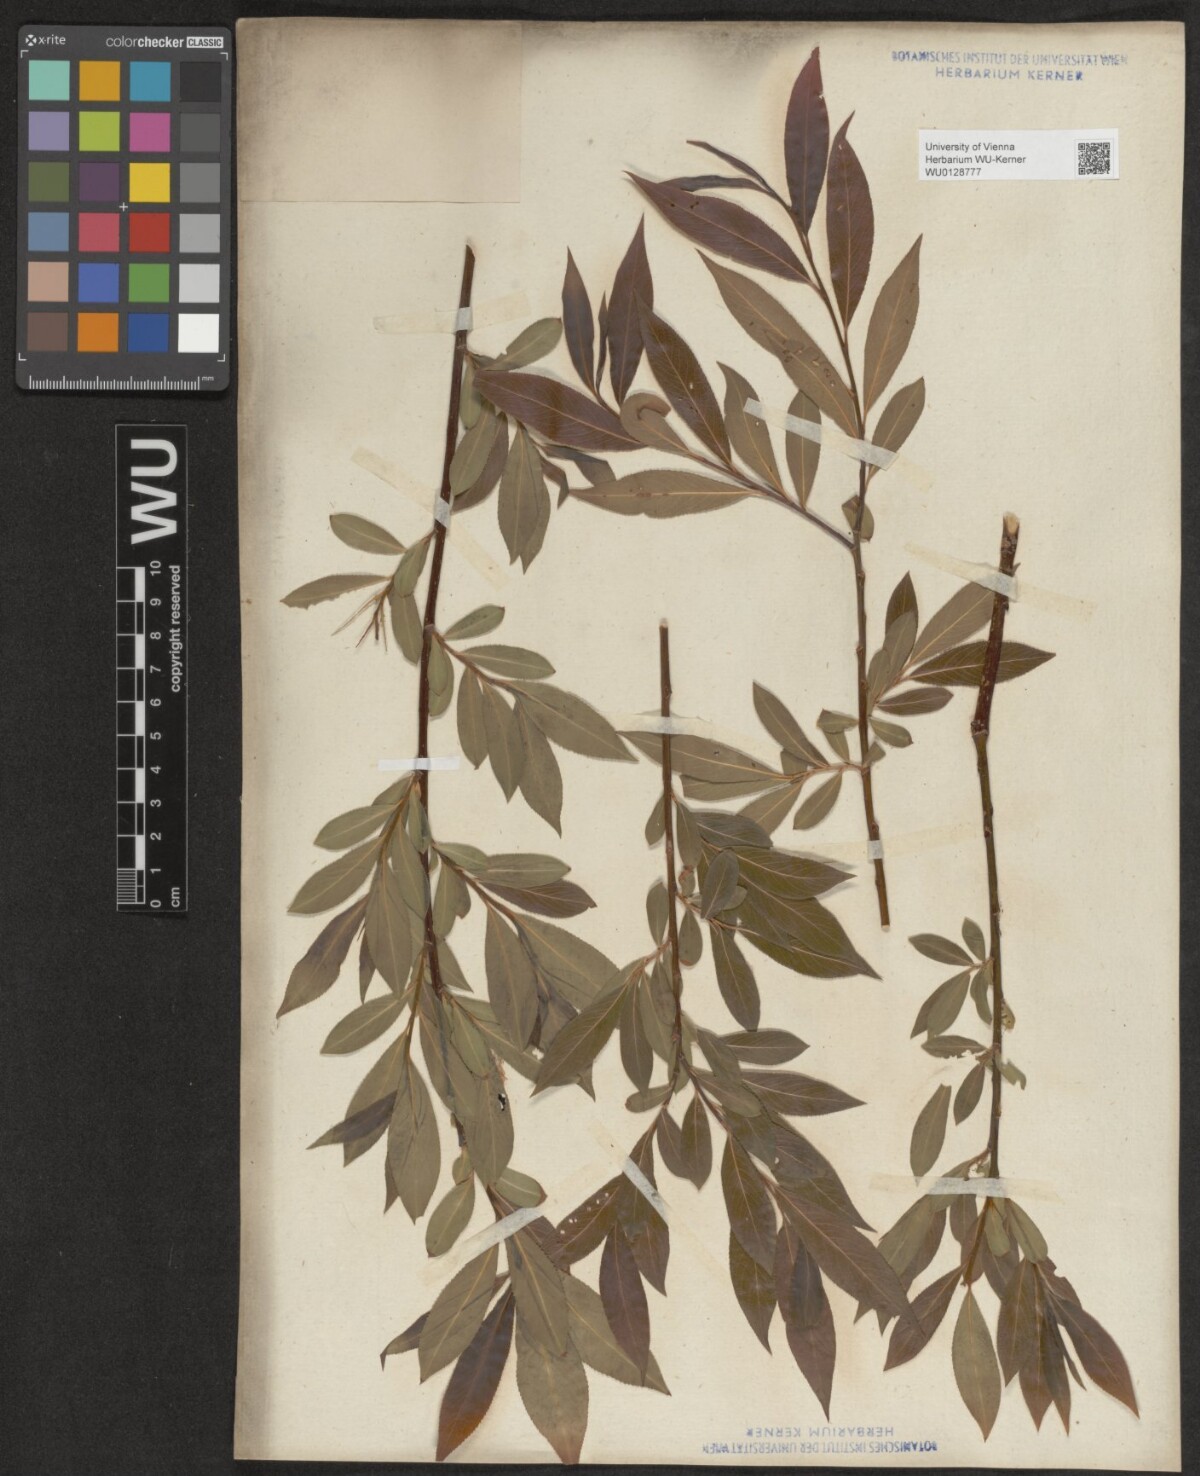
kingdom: Plantae
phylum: Tracheophyta
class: Magnoliopsida
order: Malpighiales
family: Salicaceae
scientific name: Salicaceae
